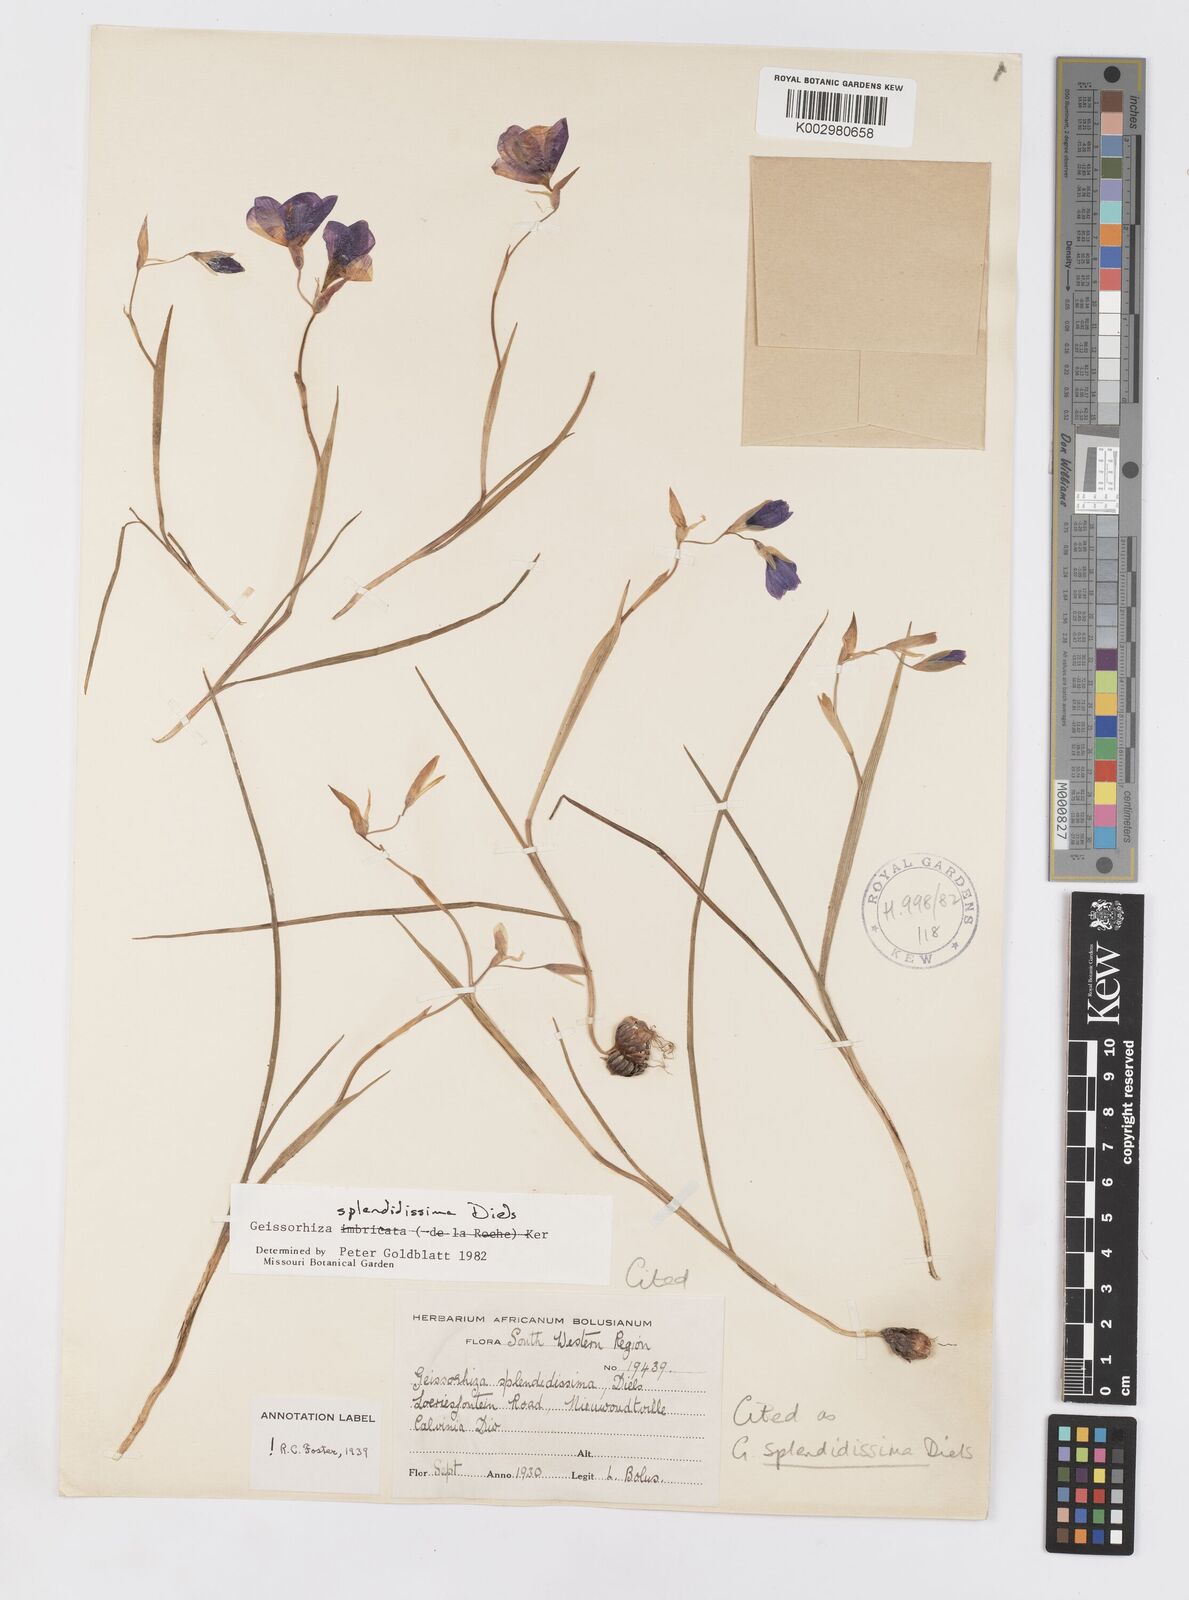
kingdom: Plantae
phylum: Tracheophyta
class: Liliopsida
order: Asparagales
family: Iridaceae
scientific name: Iridaceae
